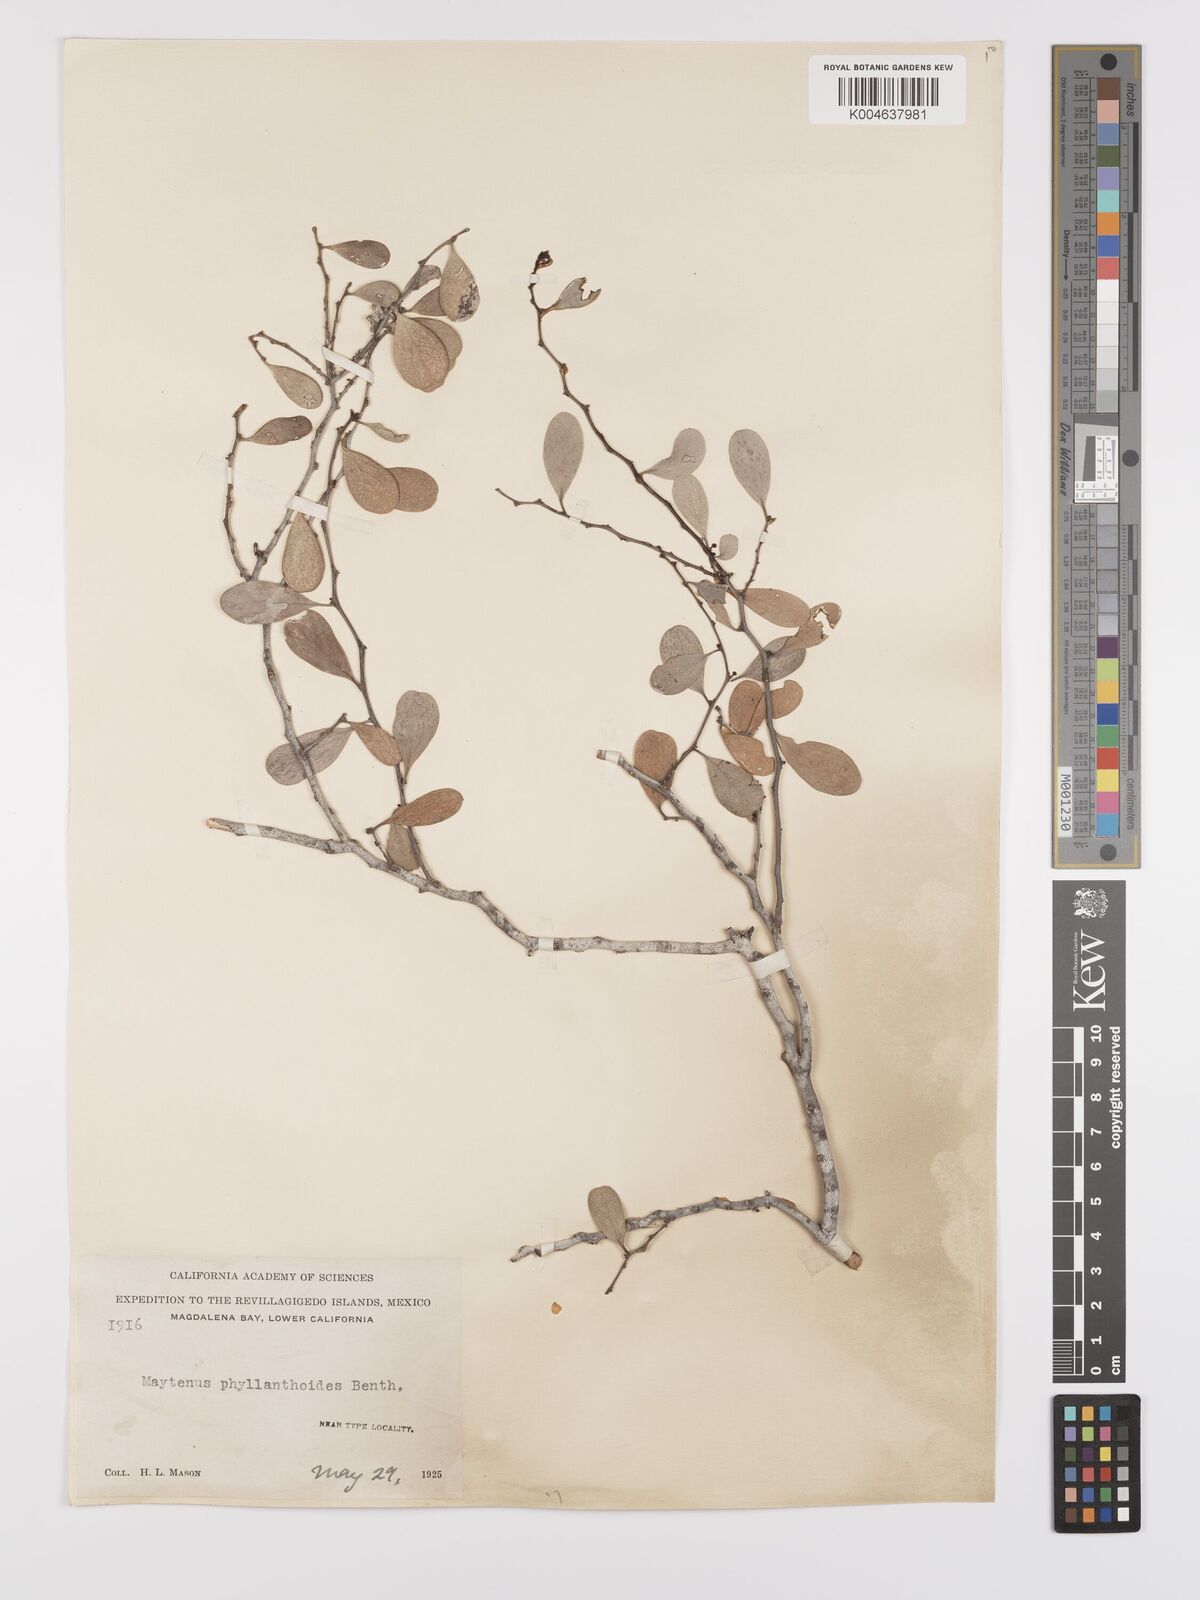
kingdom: Plantae
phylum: Tracheophyta
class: Magnoliopsida
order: Celastrales
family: Celastraceae
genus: Tricerma
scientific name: Tricerma phyllanthoides
